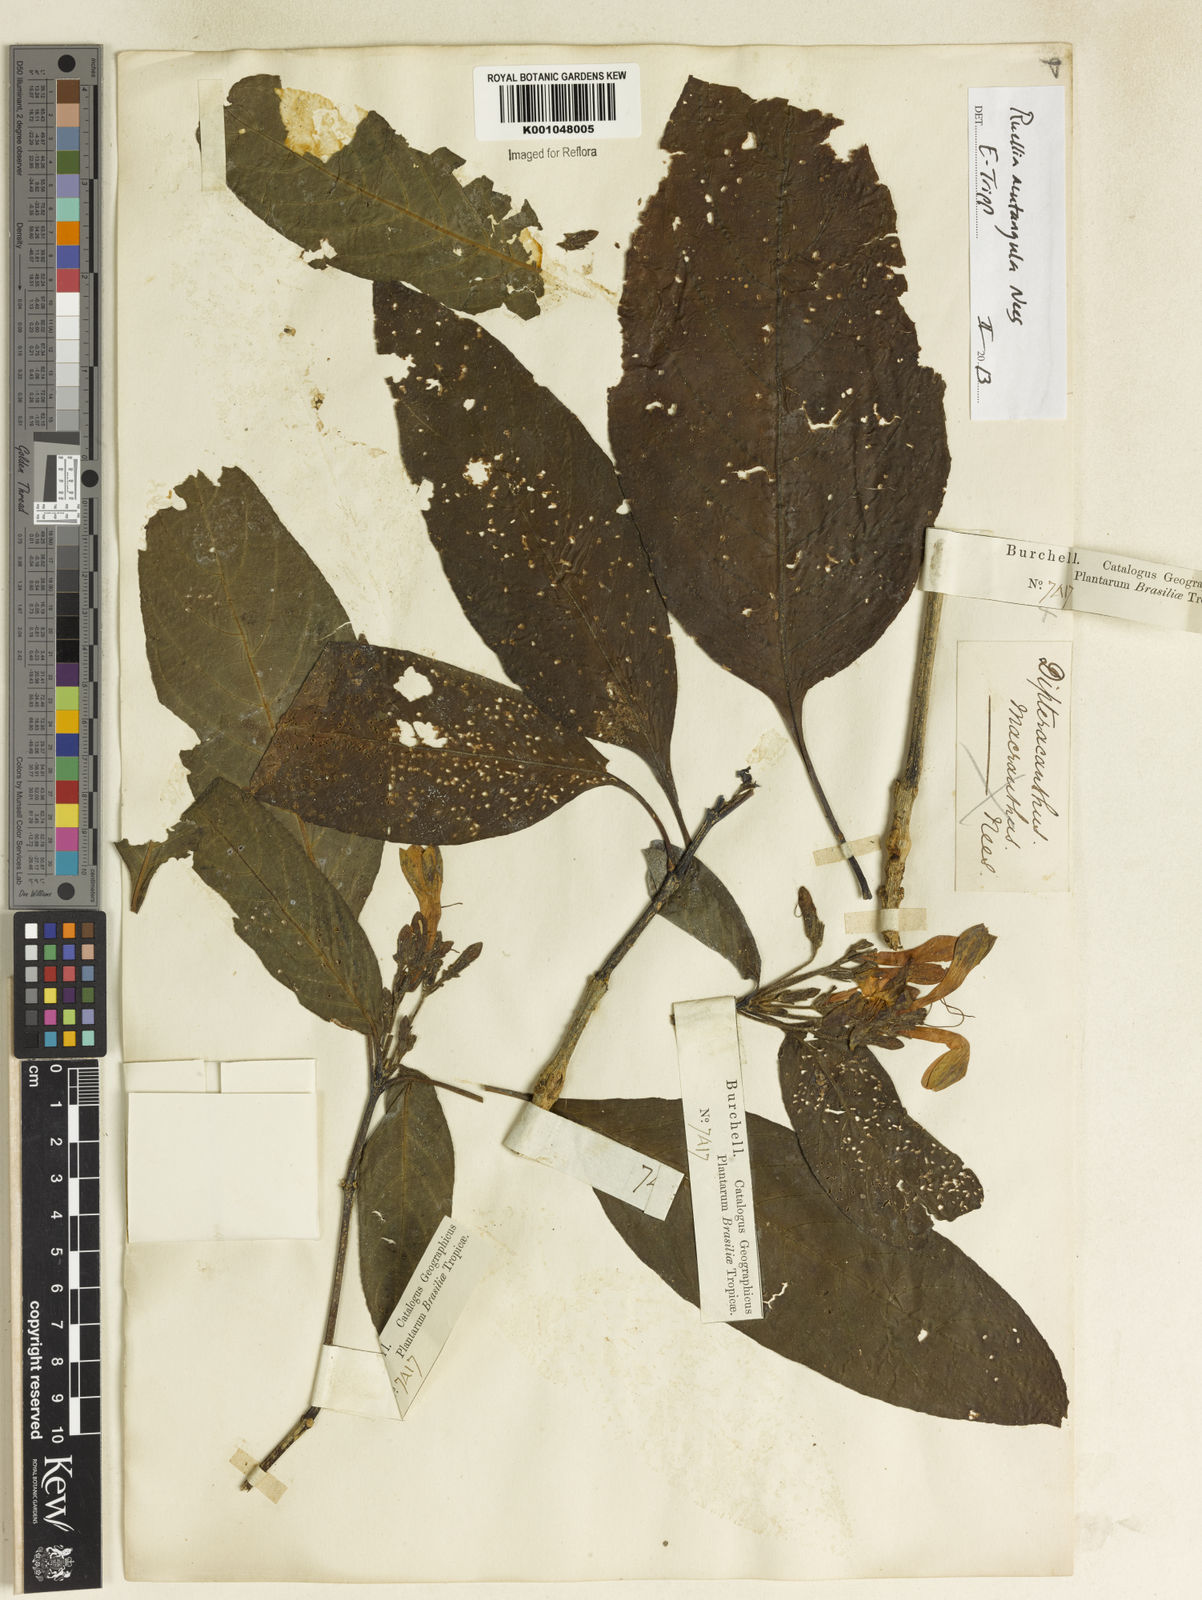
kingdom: Plantae
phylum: Tracheophyta
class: Magnoliopsida
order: Lamiales
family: Acanthaceae
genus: Ruellia
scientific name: Ruellia
